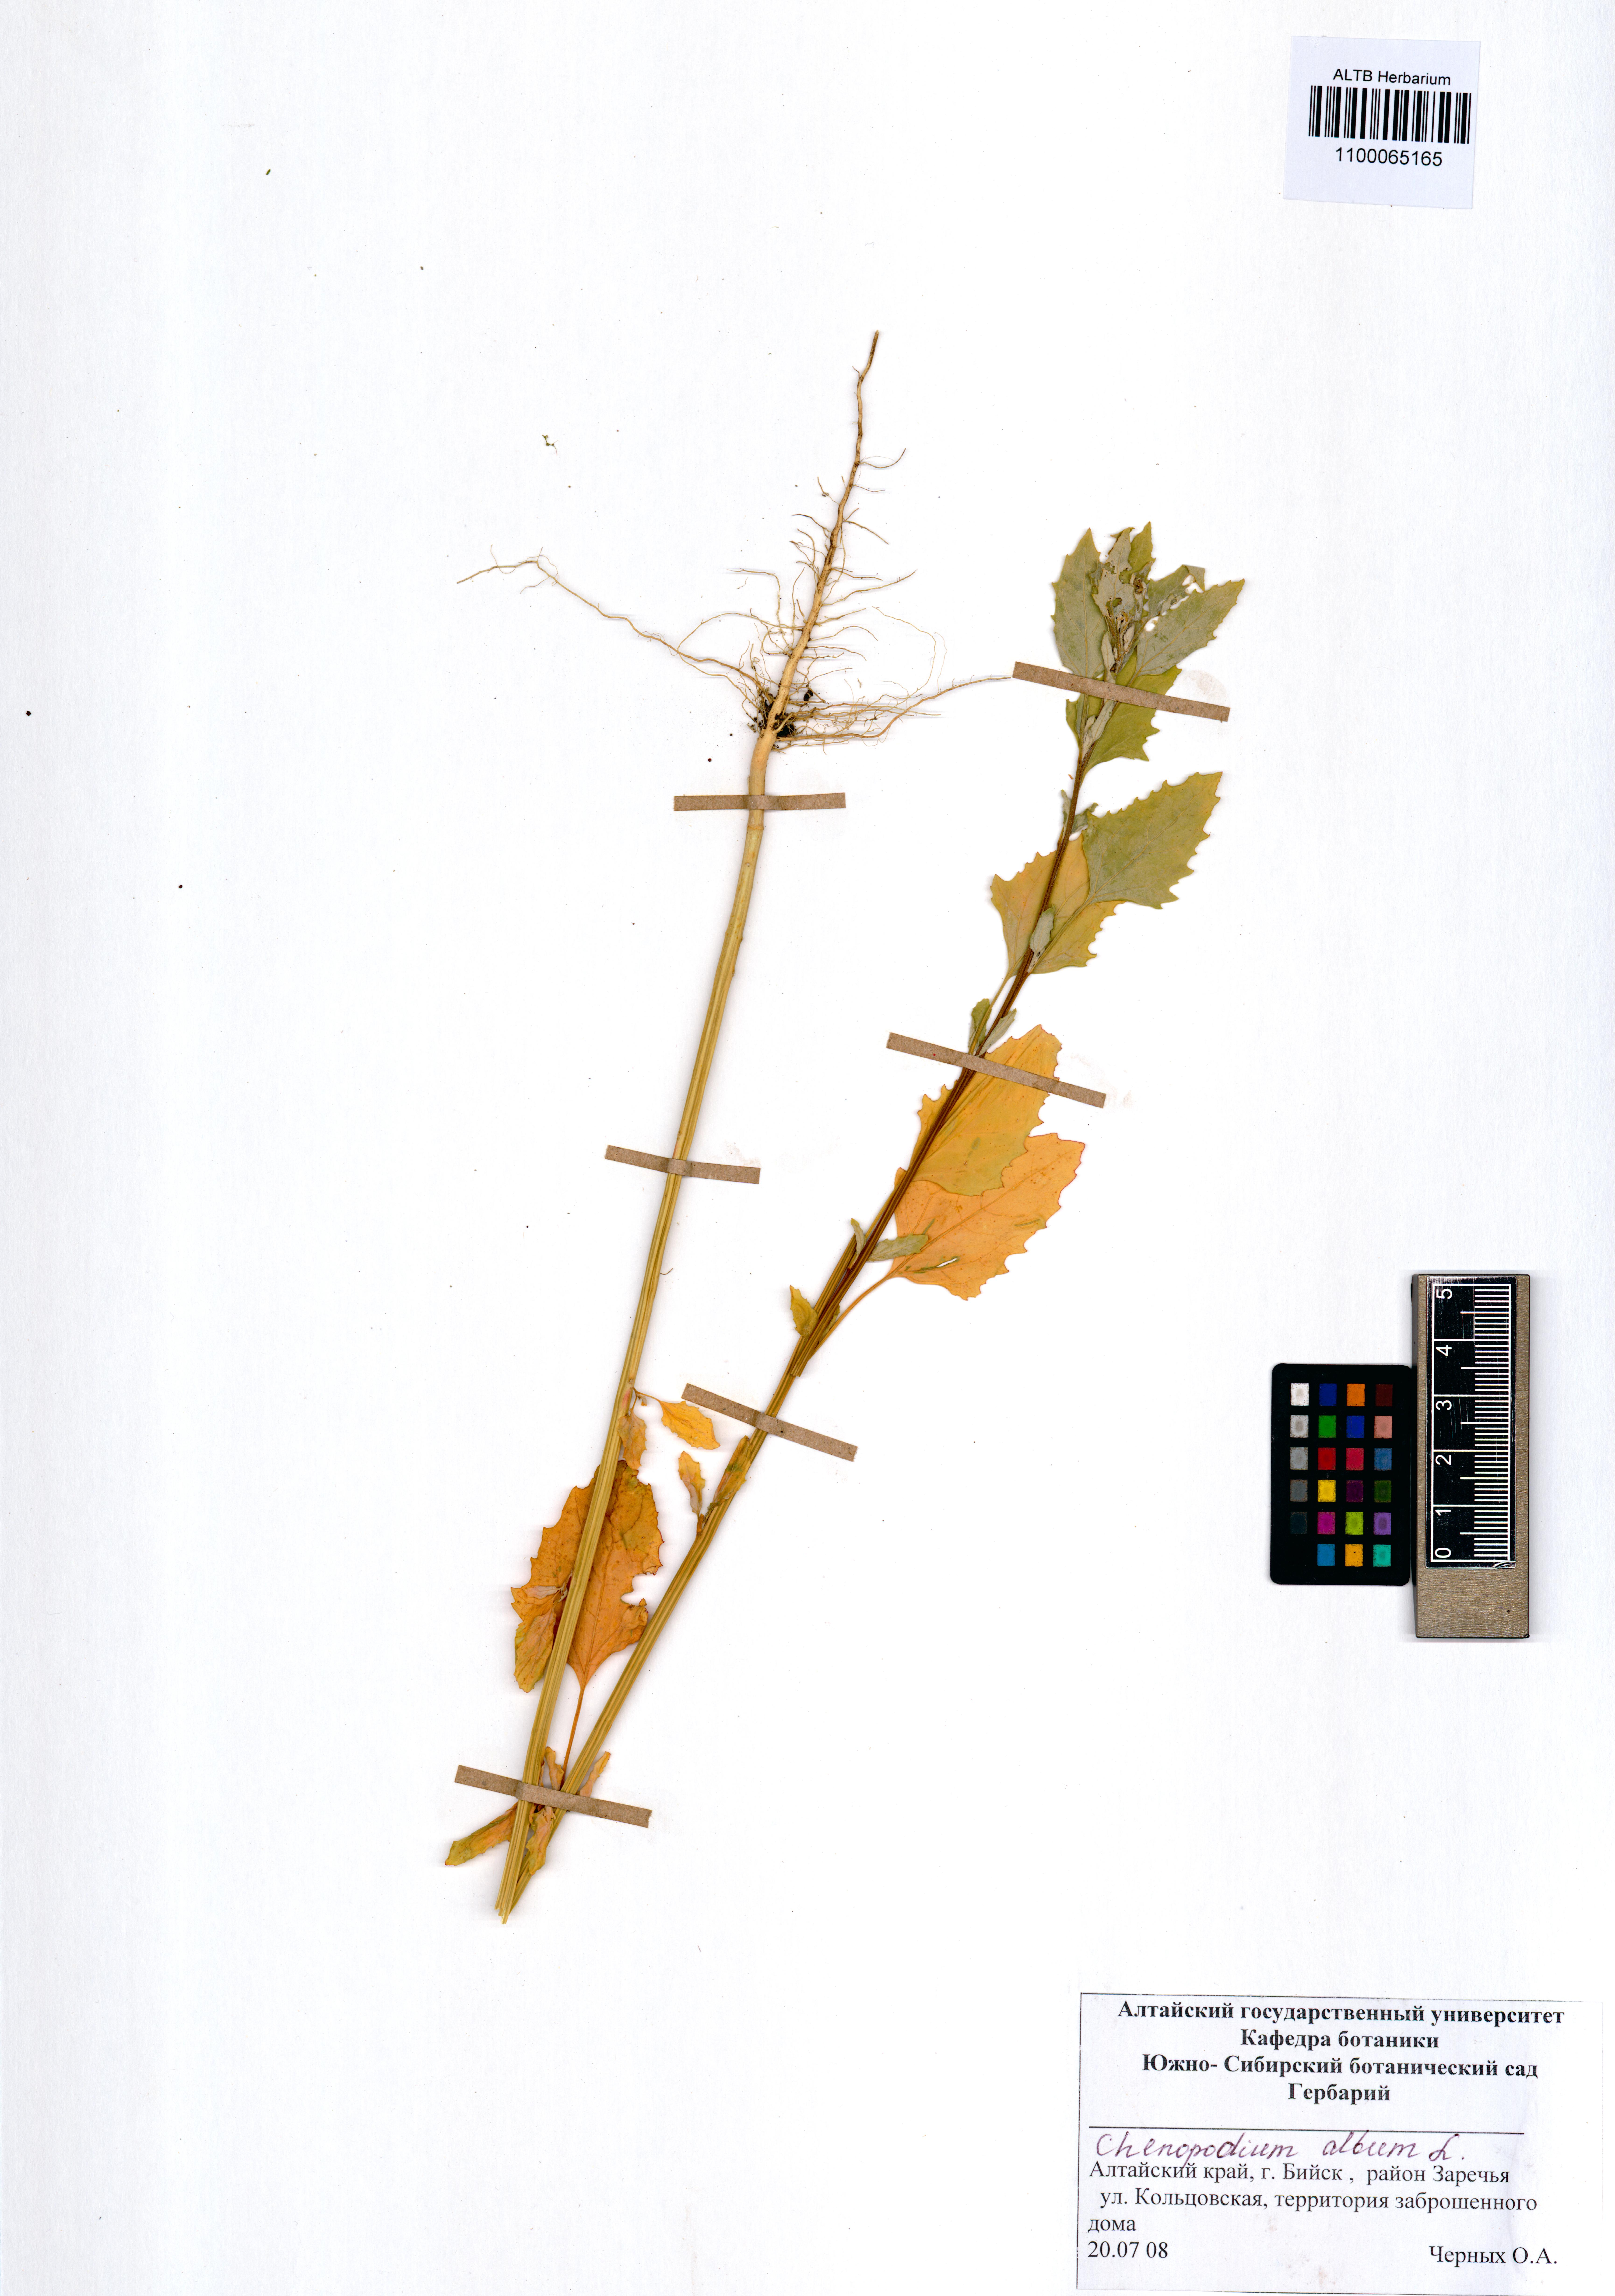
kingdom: Plantae
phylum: Tracheophyta
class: Magnoliopsida
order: Caryophyllales
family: Amaranthaceae
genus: Chenopodium
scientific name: Chenopodium album
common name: Fat-hen
